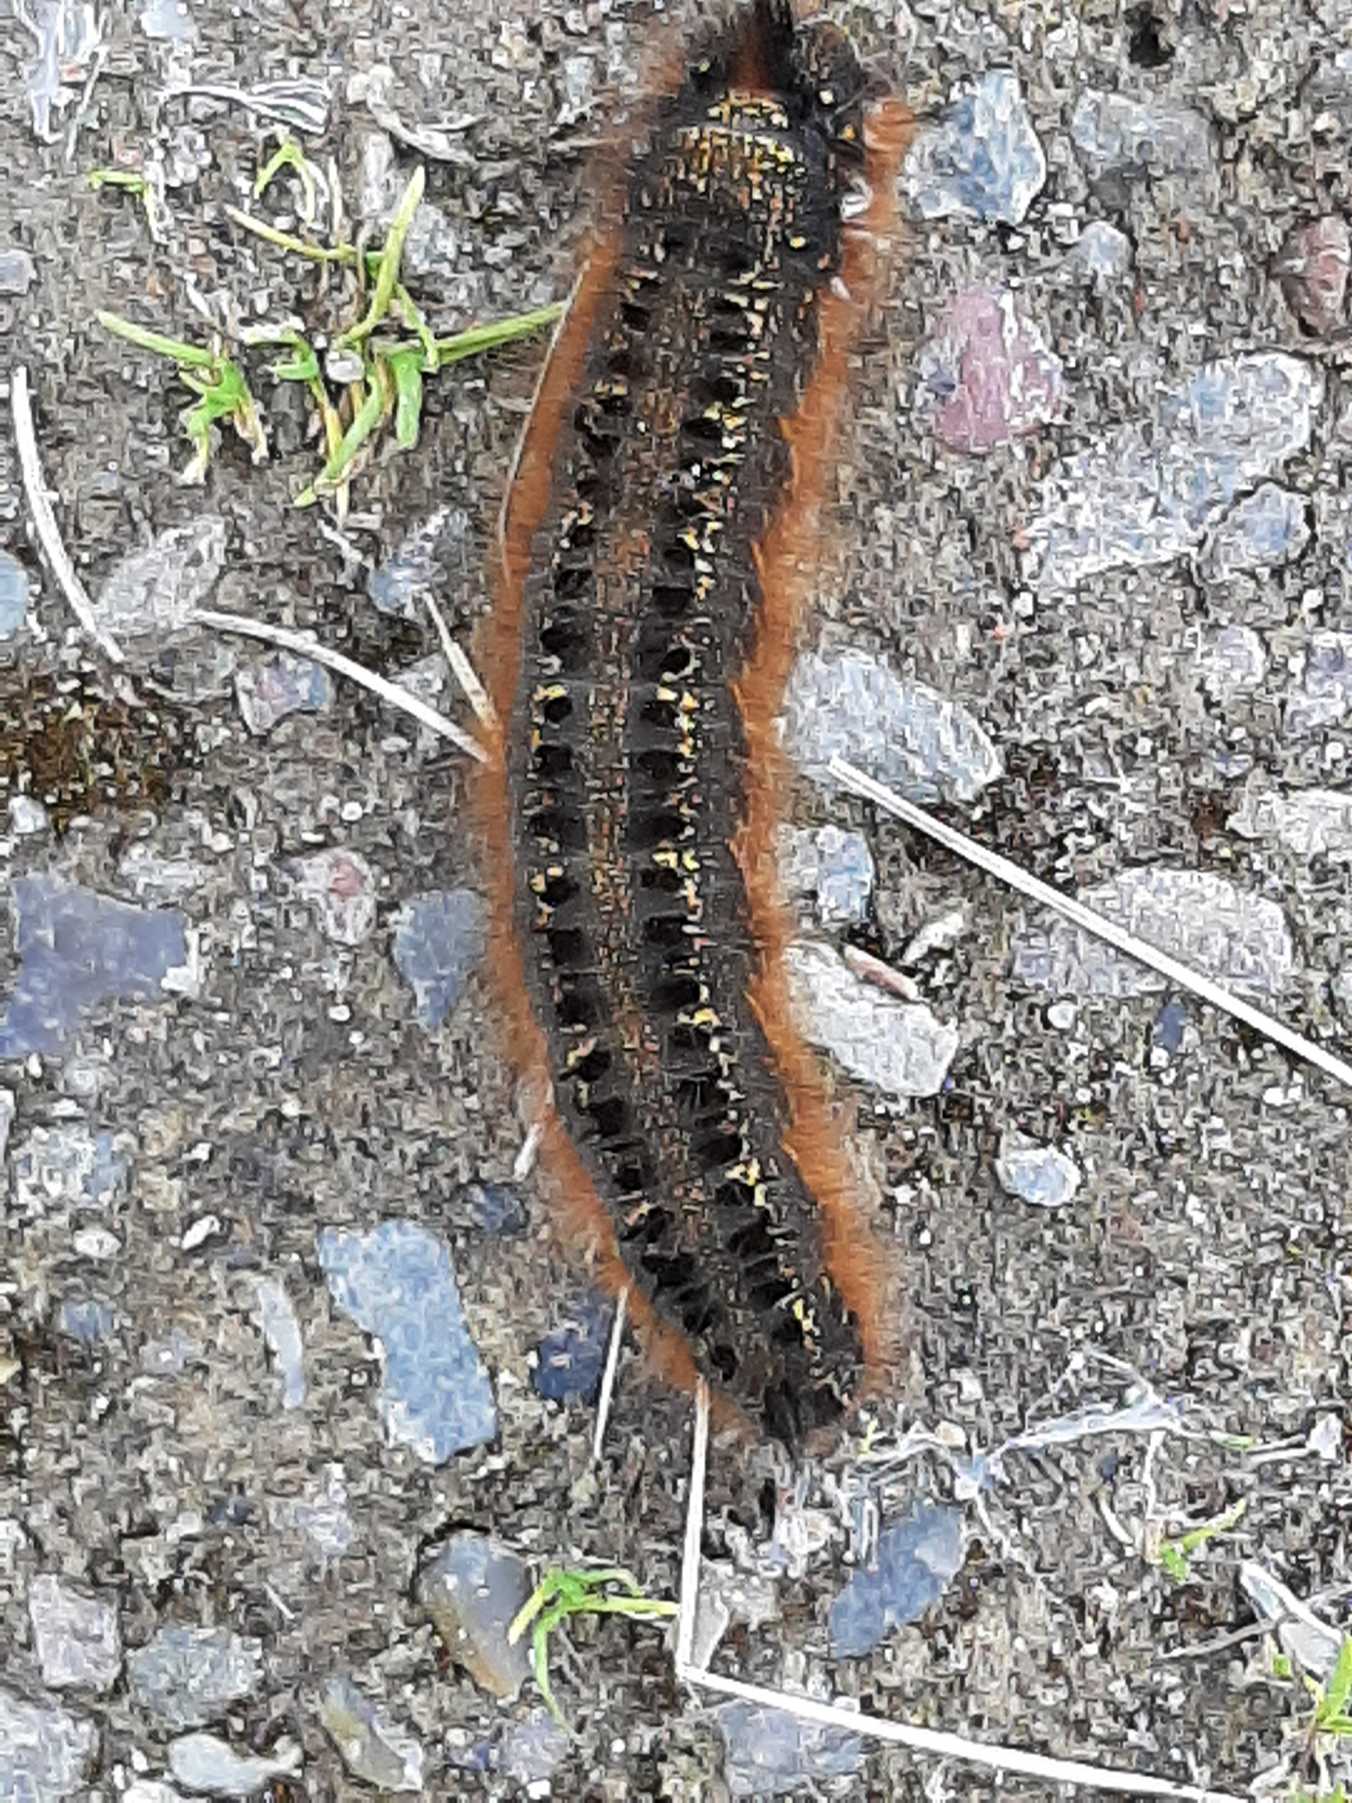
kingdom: Animalia
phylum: Arthropoda
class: Insecta
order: Lepidoptera
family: Lasiocampidae
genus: Euthrix
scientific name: Euthrix potatoria
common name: Græsspinder
